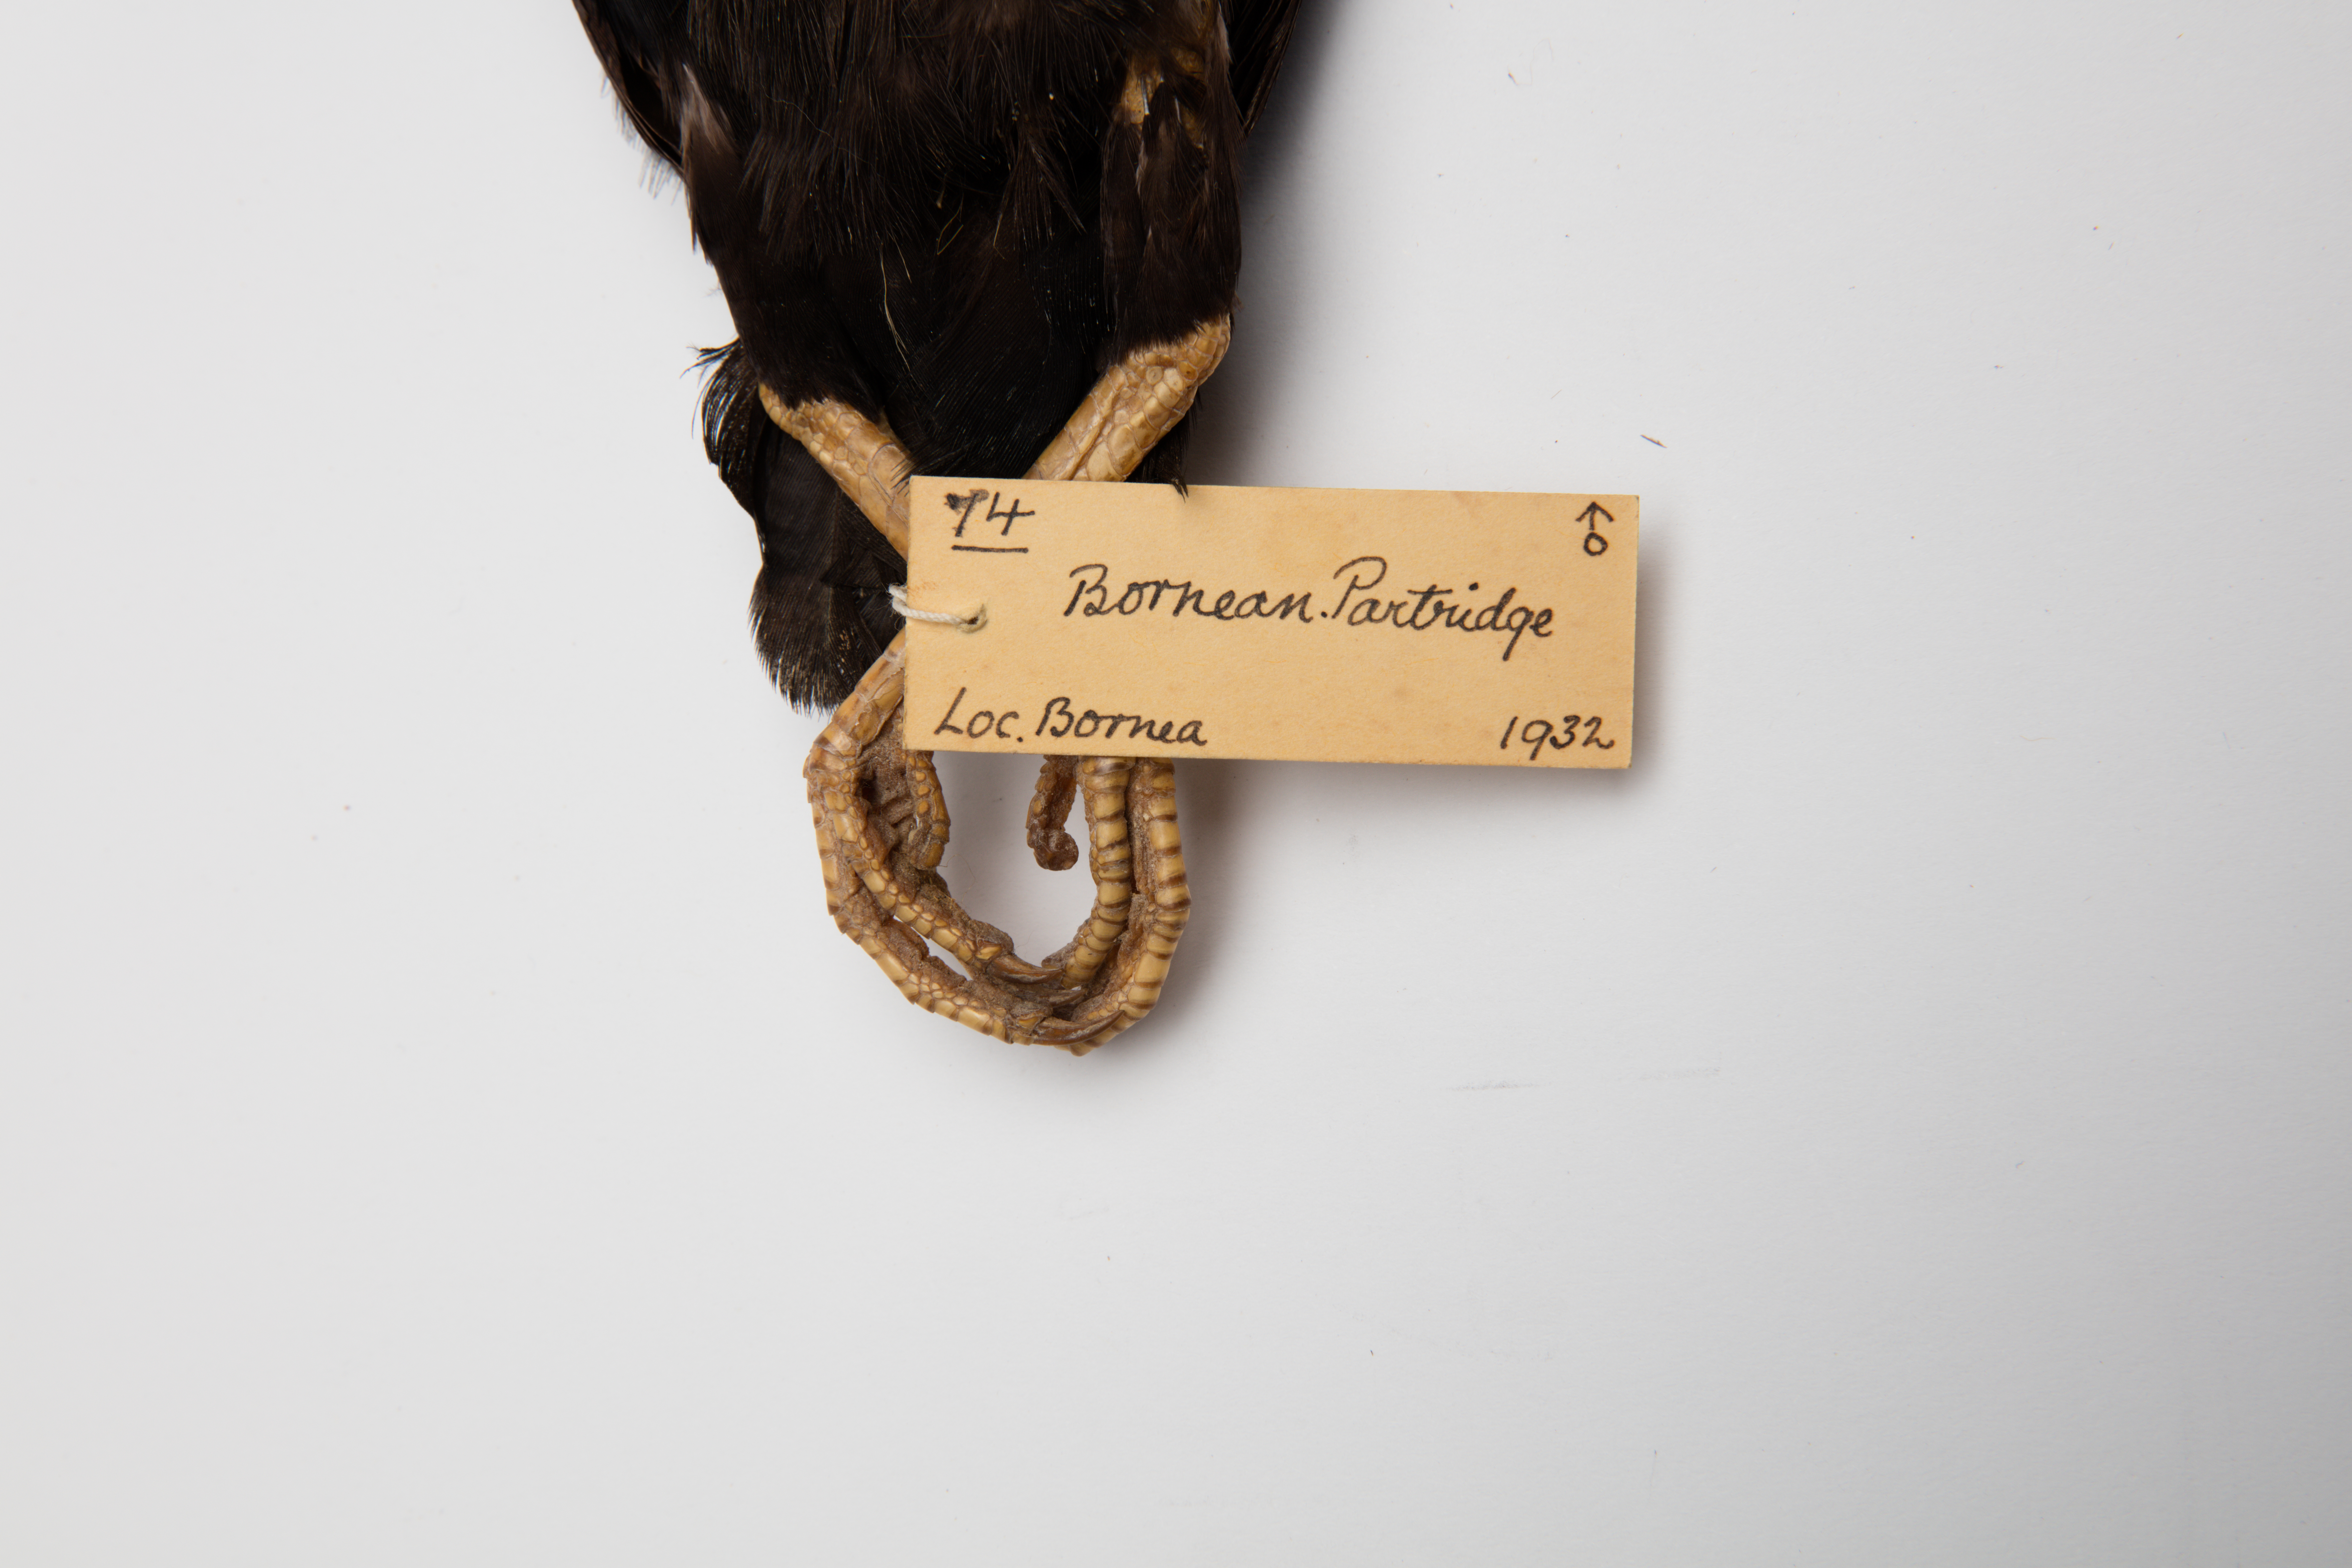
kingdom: Animalia
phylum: Chordata
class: Aves
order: Galliformes
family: Phasianidae
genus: Rollulus
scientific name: Rollulus rouloul
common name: Crested partridge
